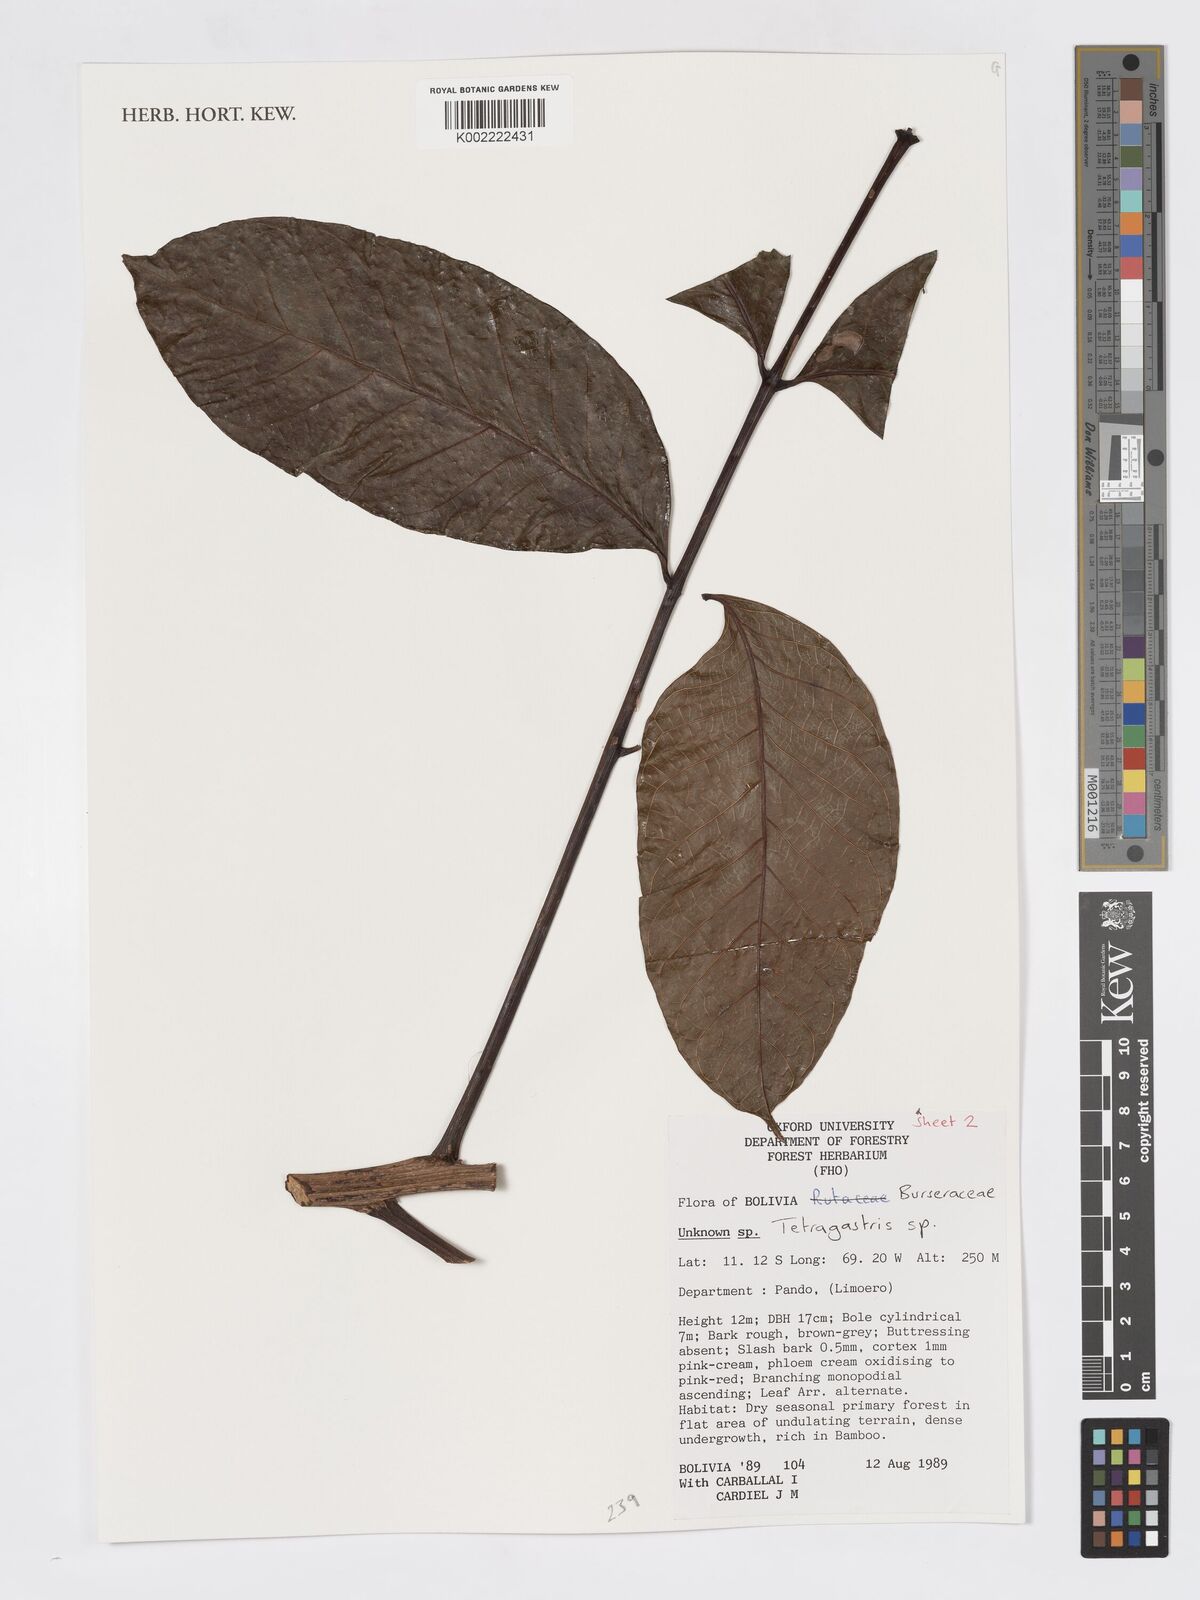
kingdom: Plantae
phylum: Tracheophyta
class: Magnoliopsida
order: Sapindales
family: Burseraceae
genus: Tetragastris
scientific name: Tetragastris
